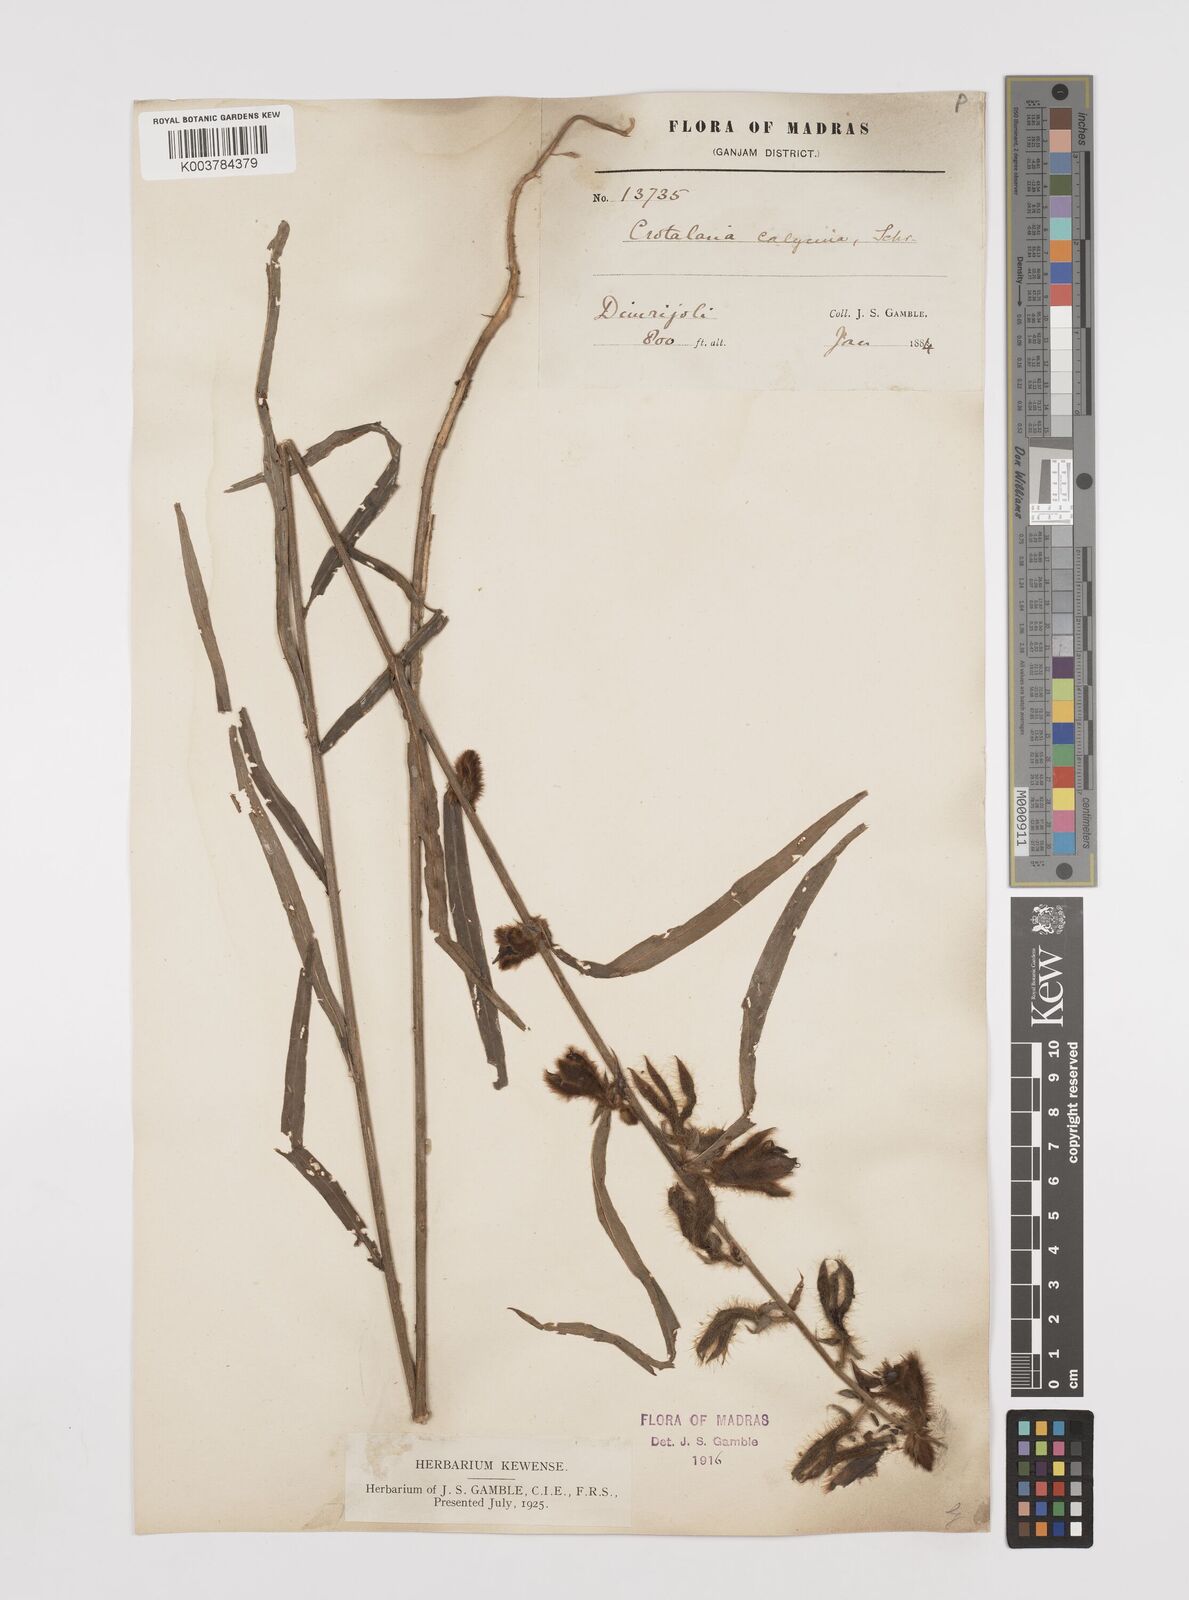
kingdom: Plantae
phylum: Tracheophyta
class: Magnoliopsida
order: Fabales
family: Fabaceae
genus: Crotalaria
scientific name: Crotalaria calycina
